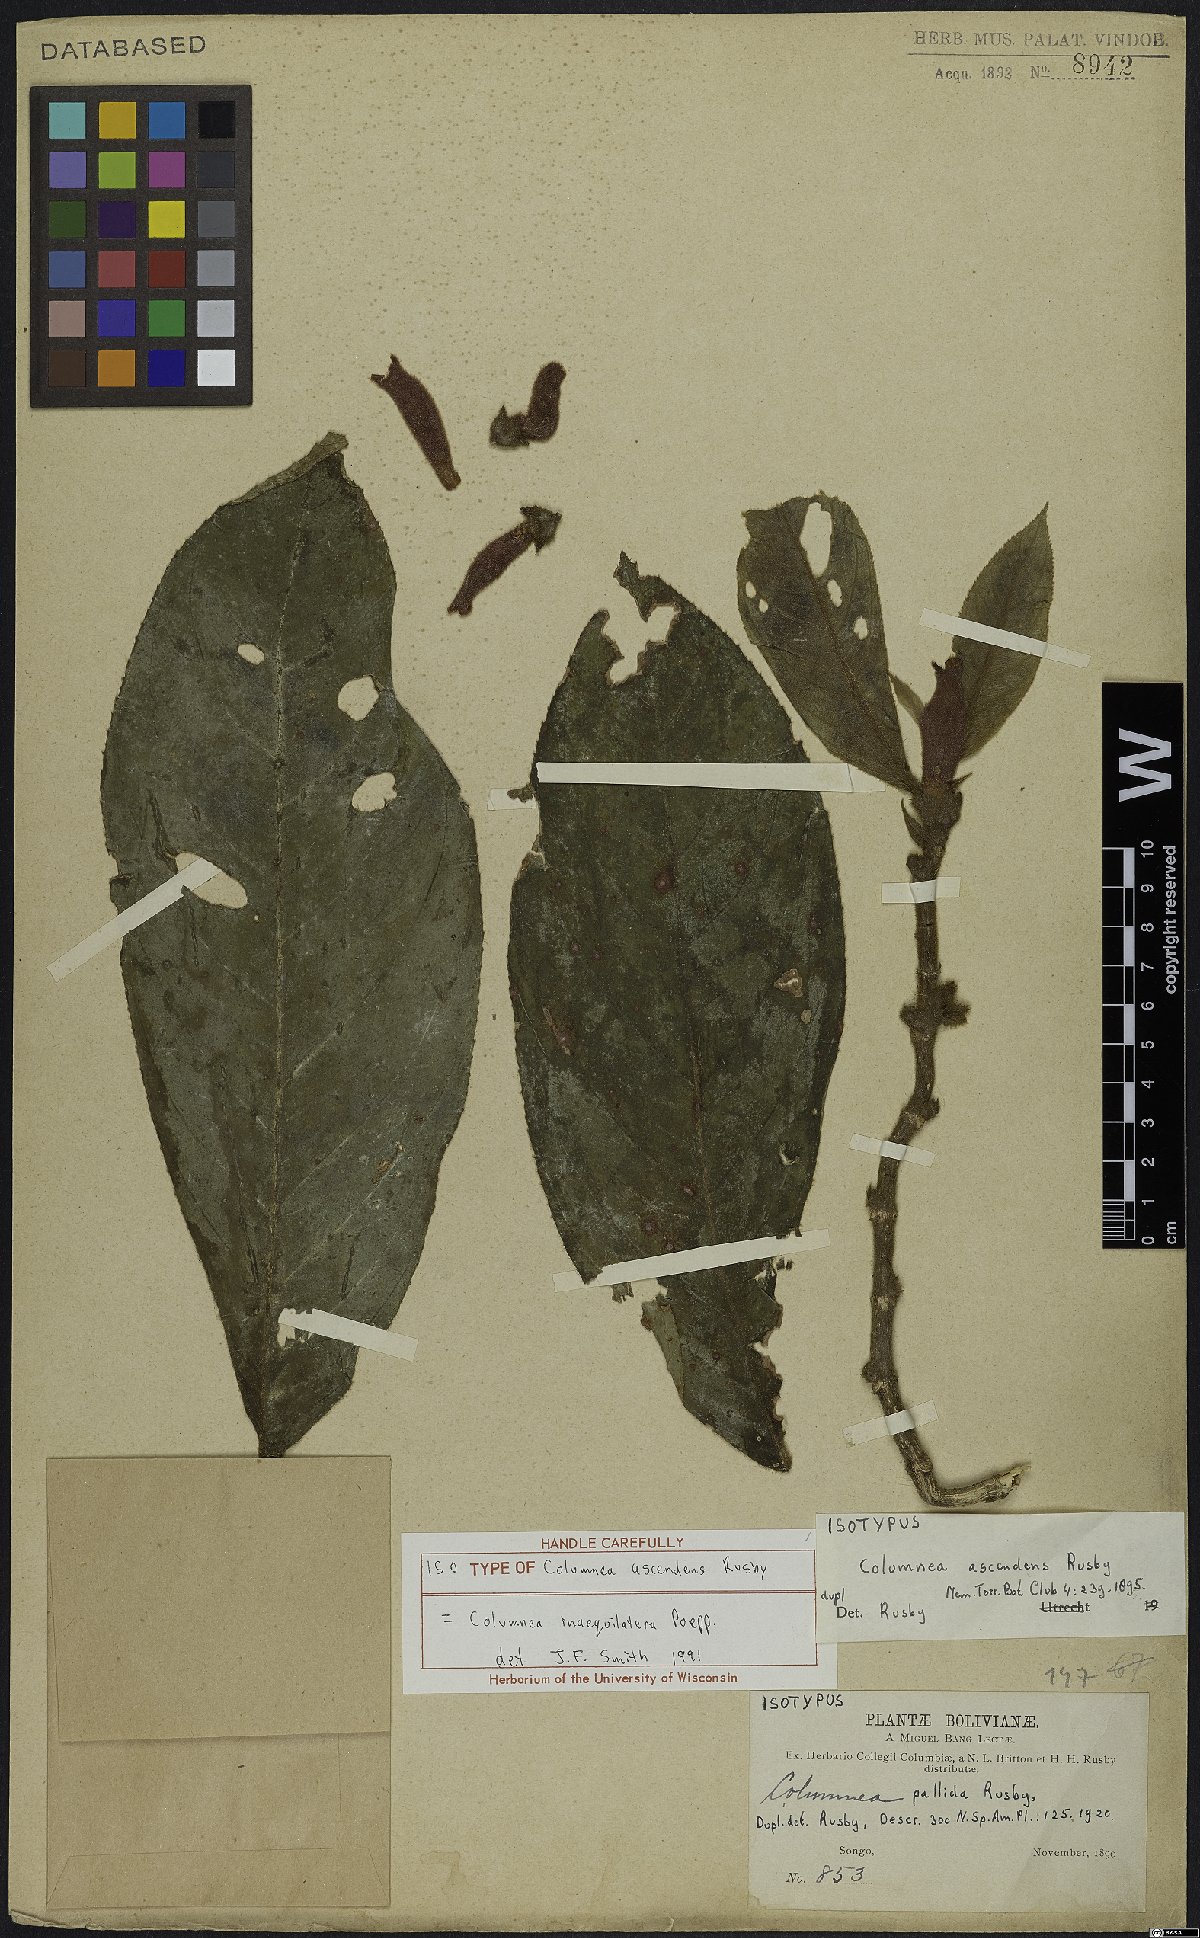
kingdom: Plantae
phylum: Tracheophyta
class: Magnoliopsida
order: Lamiales
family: Gesneriaceae
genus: Columnea
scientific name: Columnea inaequilatera
